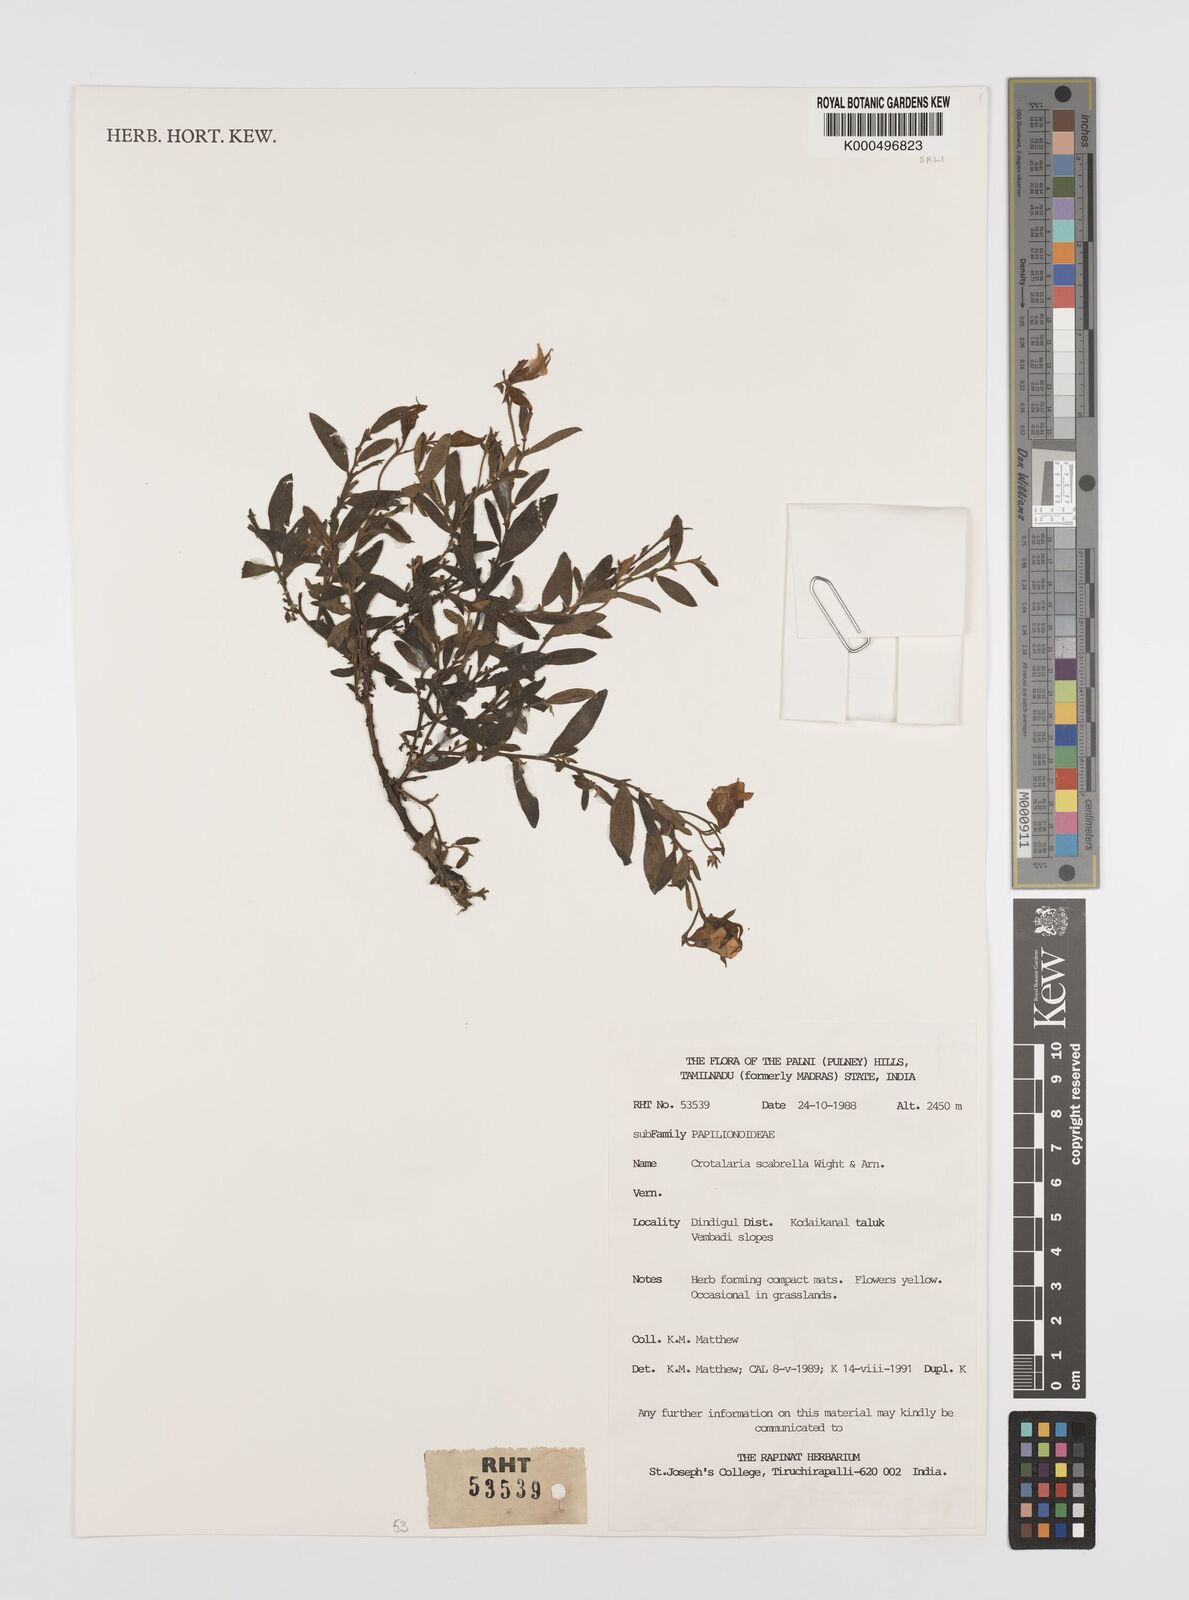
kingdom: Plantae
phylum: Tracheophyta
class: Magnoliopsida
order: Fabales
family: Fabaceae
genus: Crotalaria
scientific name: Crotalaria scabrella
